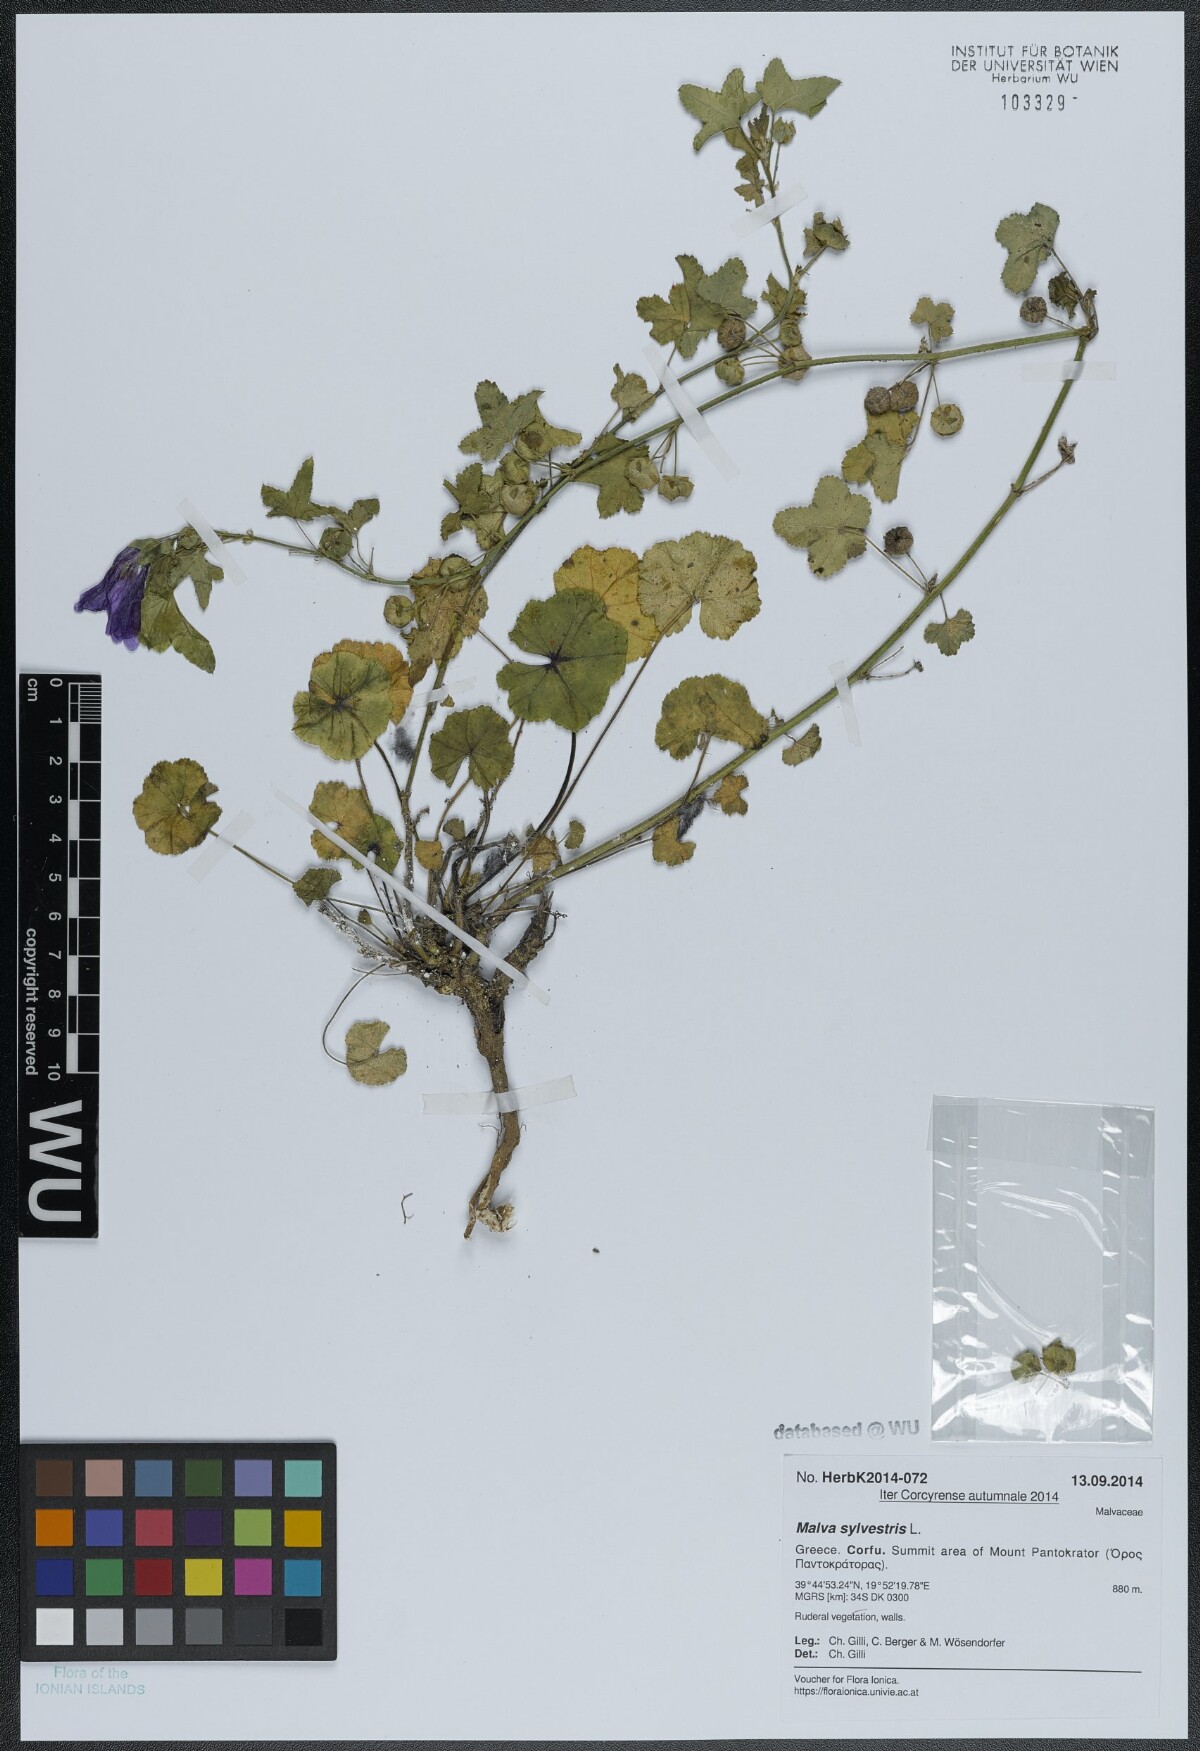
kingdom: Plantae
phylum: Tracheophyta
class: Magnoliopsida
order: Malvales
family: Malvaceae
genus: Malva
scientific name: Malva sylvestris
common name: Common mallow
